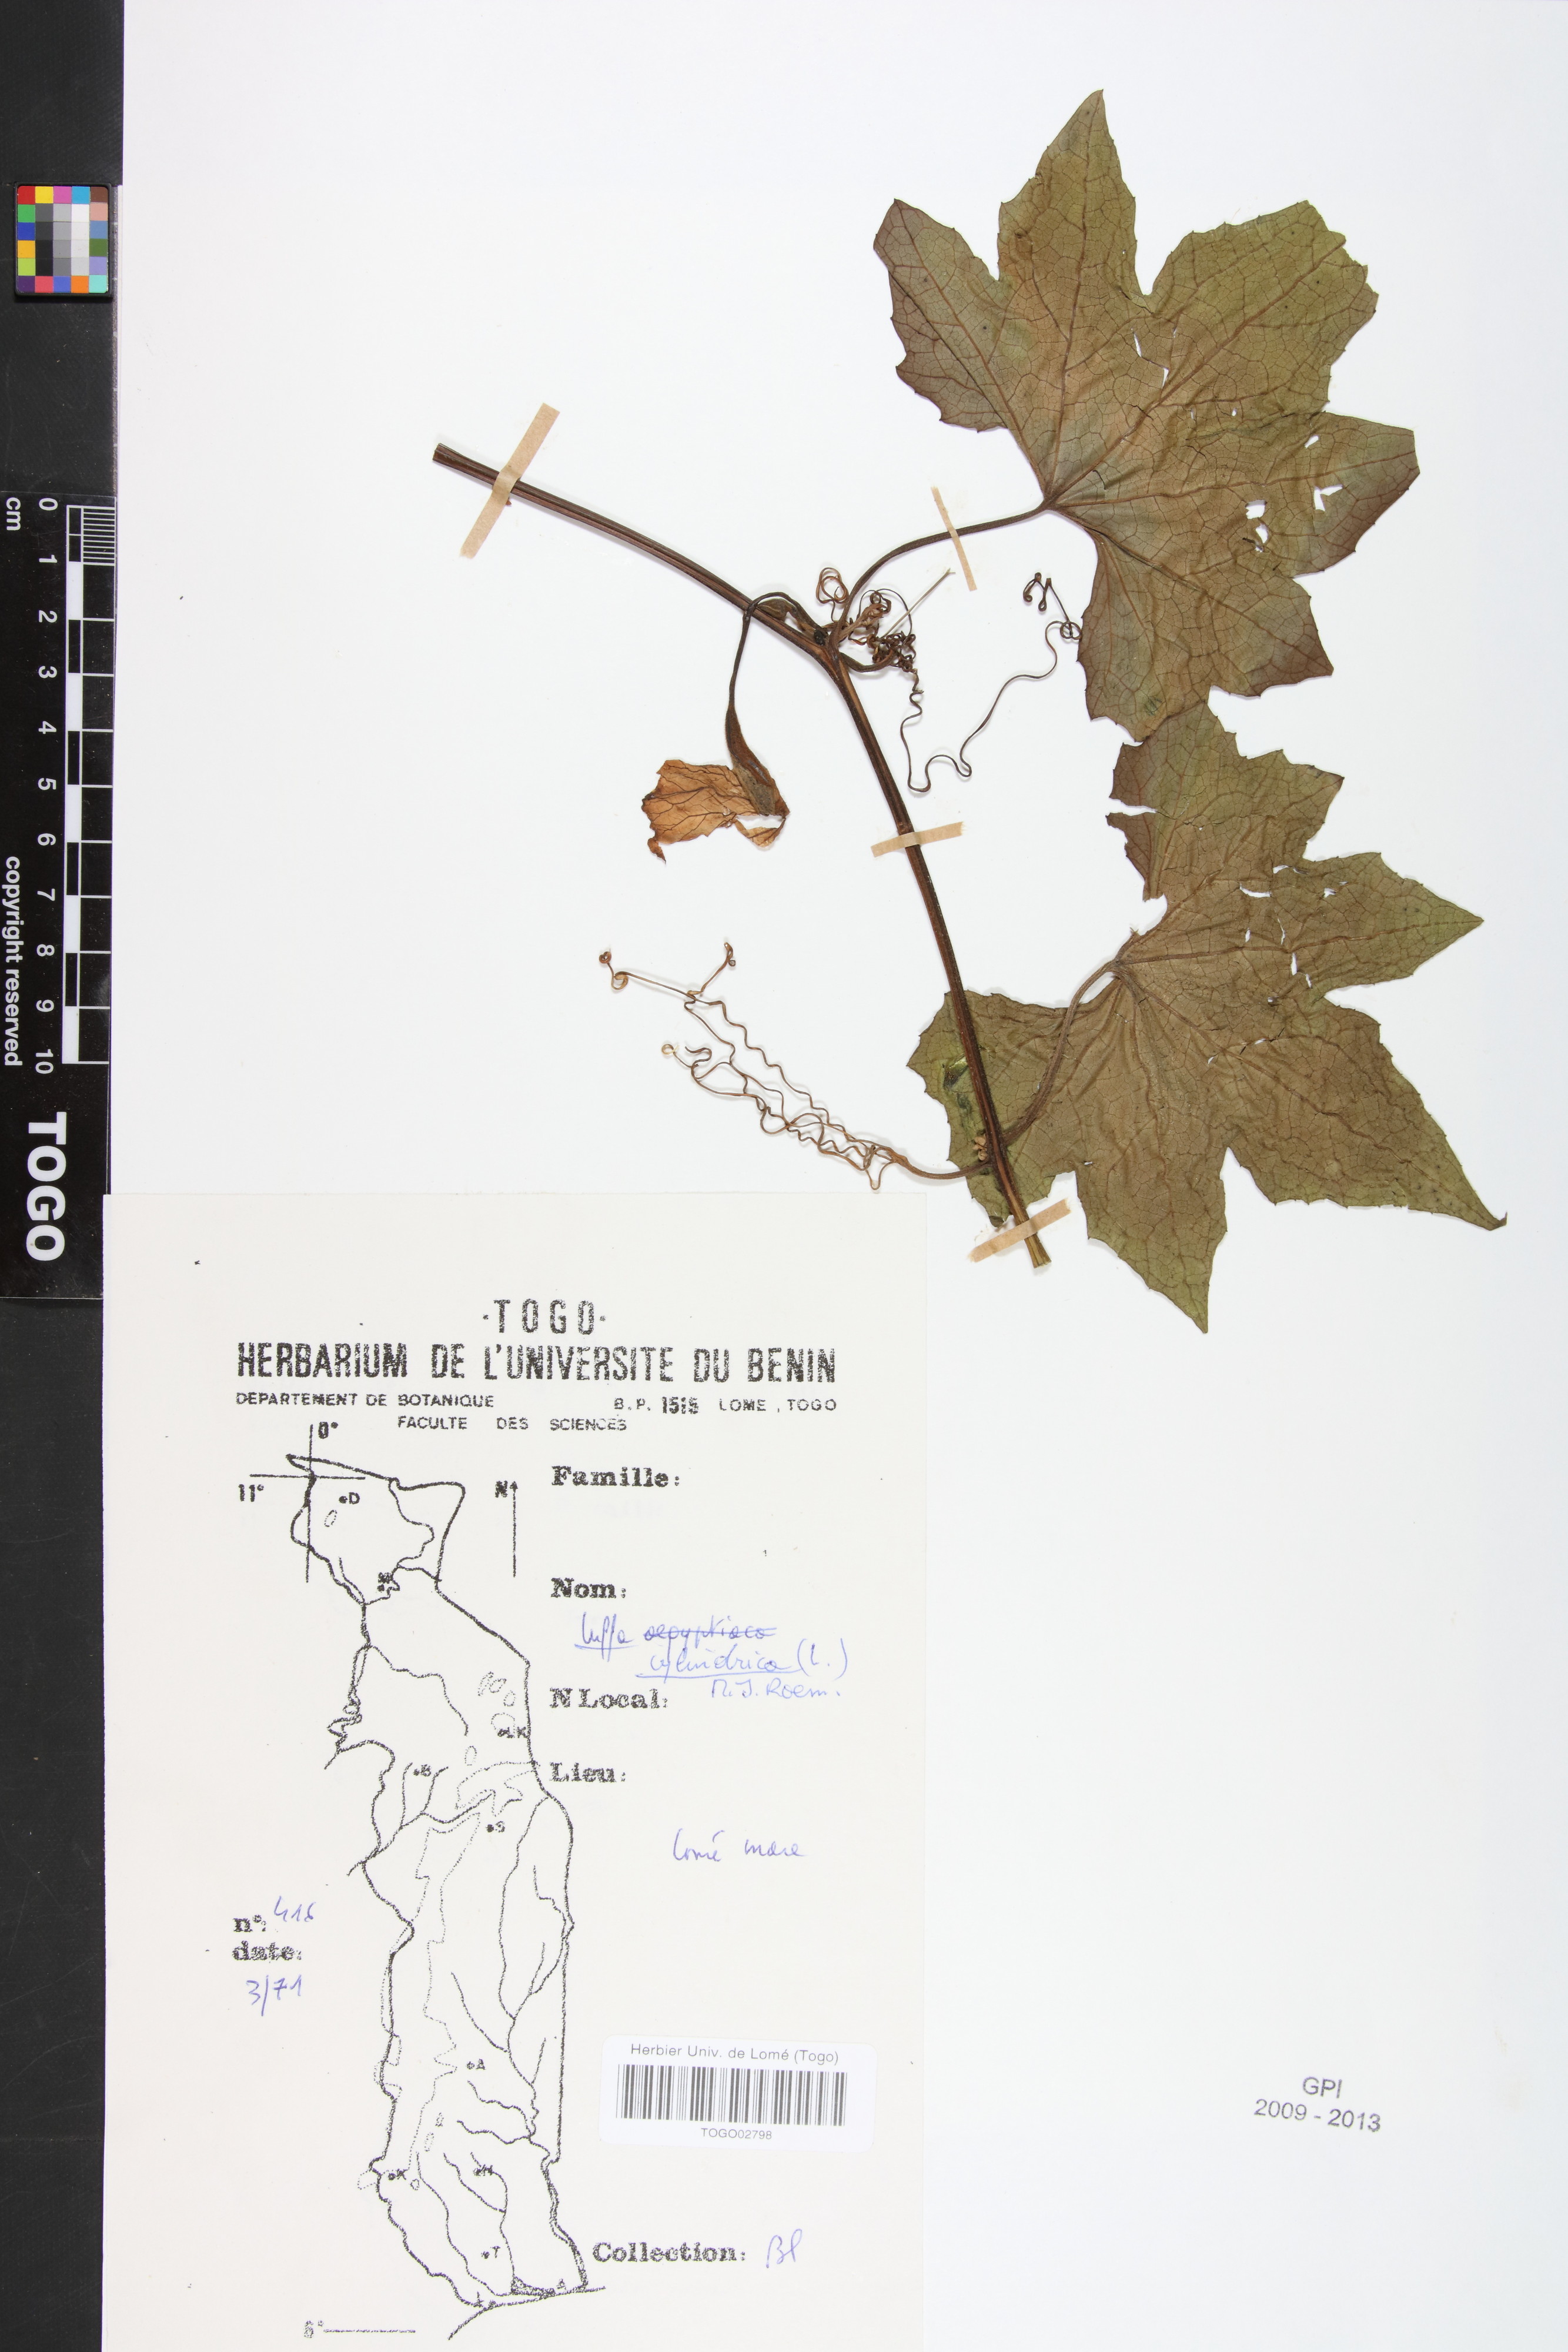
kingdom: Plantae
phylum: Tracheophyta
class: Magnoliopsida
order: Cucurbitales
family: Cucurbitaceae
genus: Luffa
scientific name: Luffa aegyptiaca
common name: Sponge gourd
